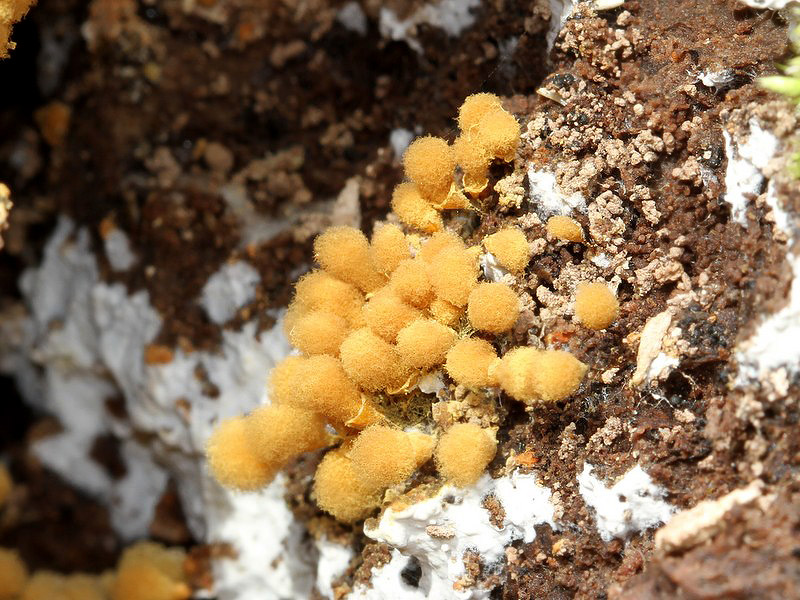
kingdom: Protozoa
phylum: Mycetozoa
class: Myxomycetes
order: Trichiales
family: Arcyriaceae
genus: Hemitrichia
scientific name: Hemitrichia clavata
